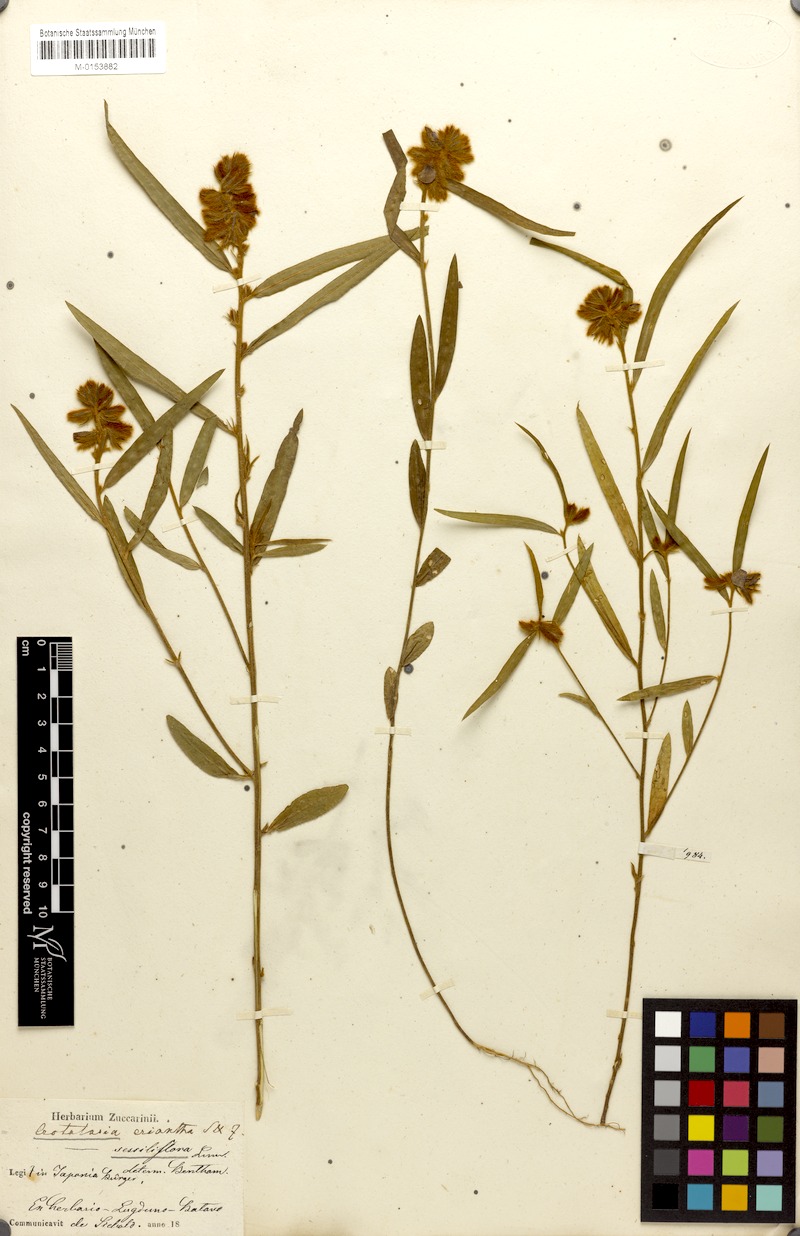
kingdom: Plantae
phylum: Tracheophyta
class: Magnoliopsida
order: Fabales
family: Fabaceae
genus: Crotalaria
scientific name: Crotalaria sessiliflora
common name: Rattlebox
